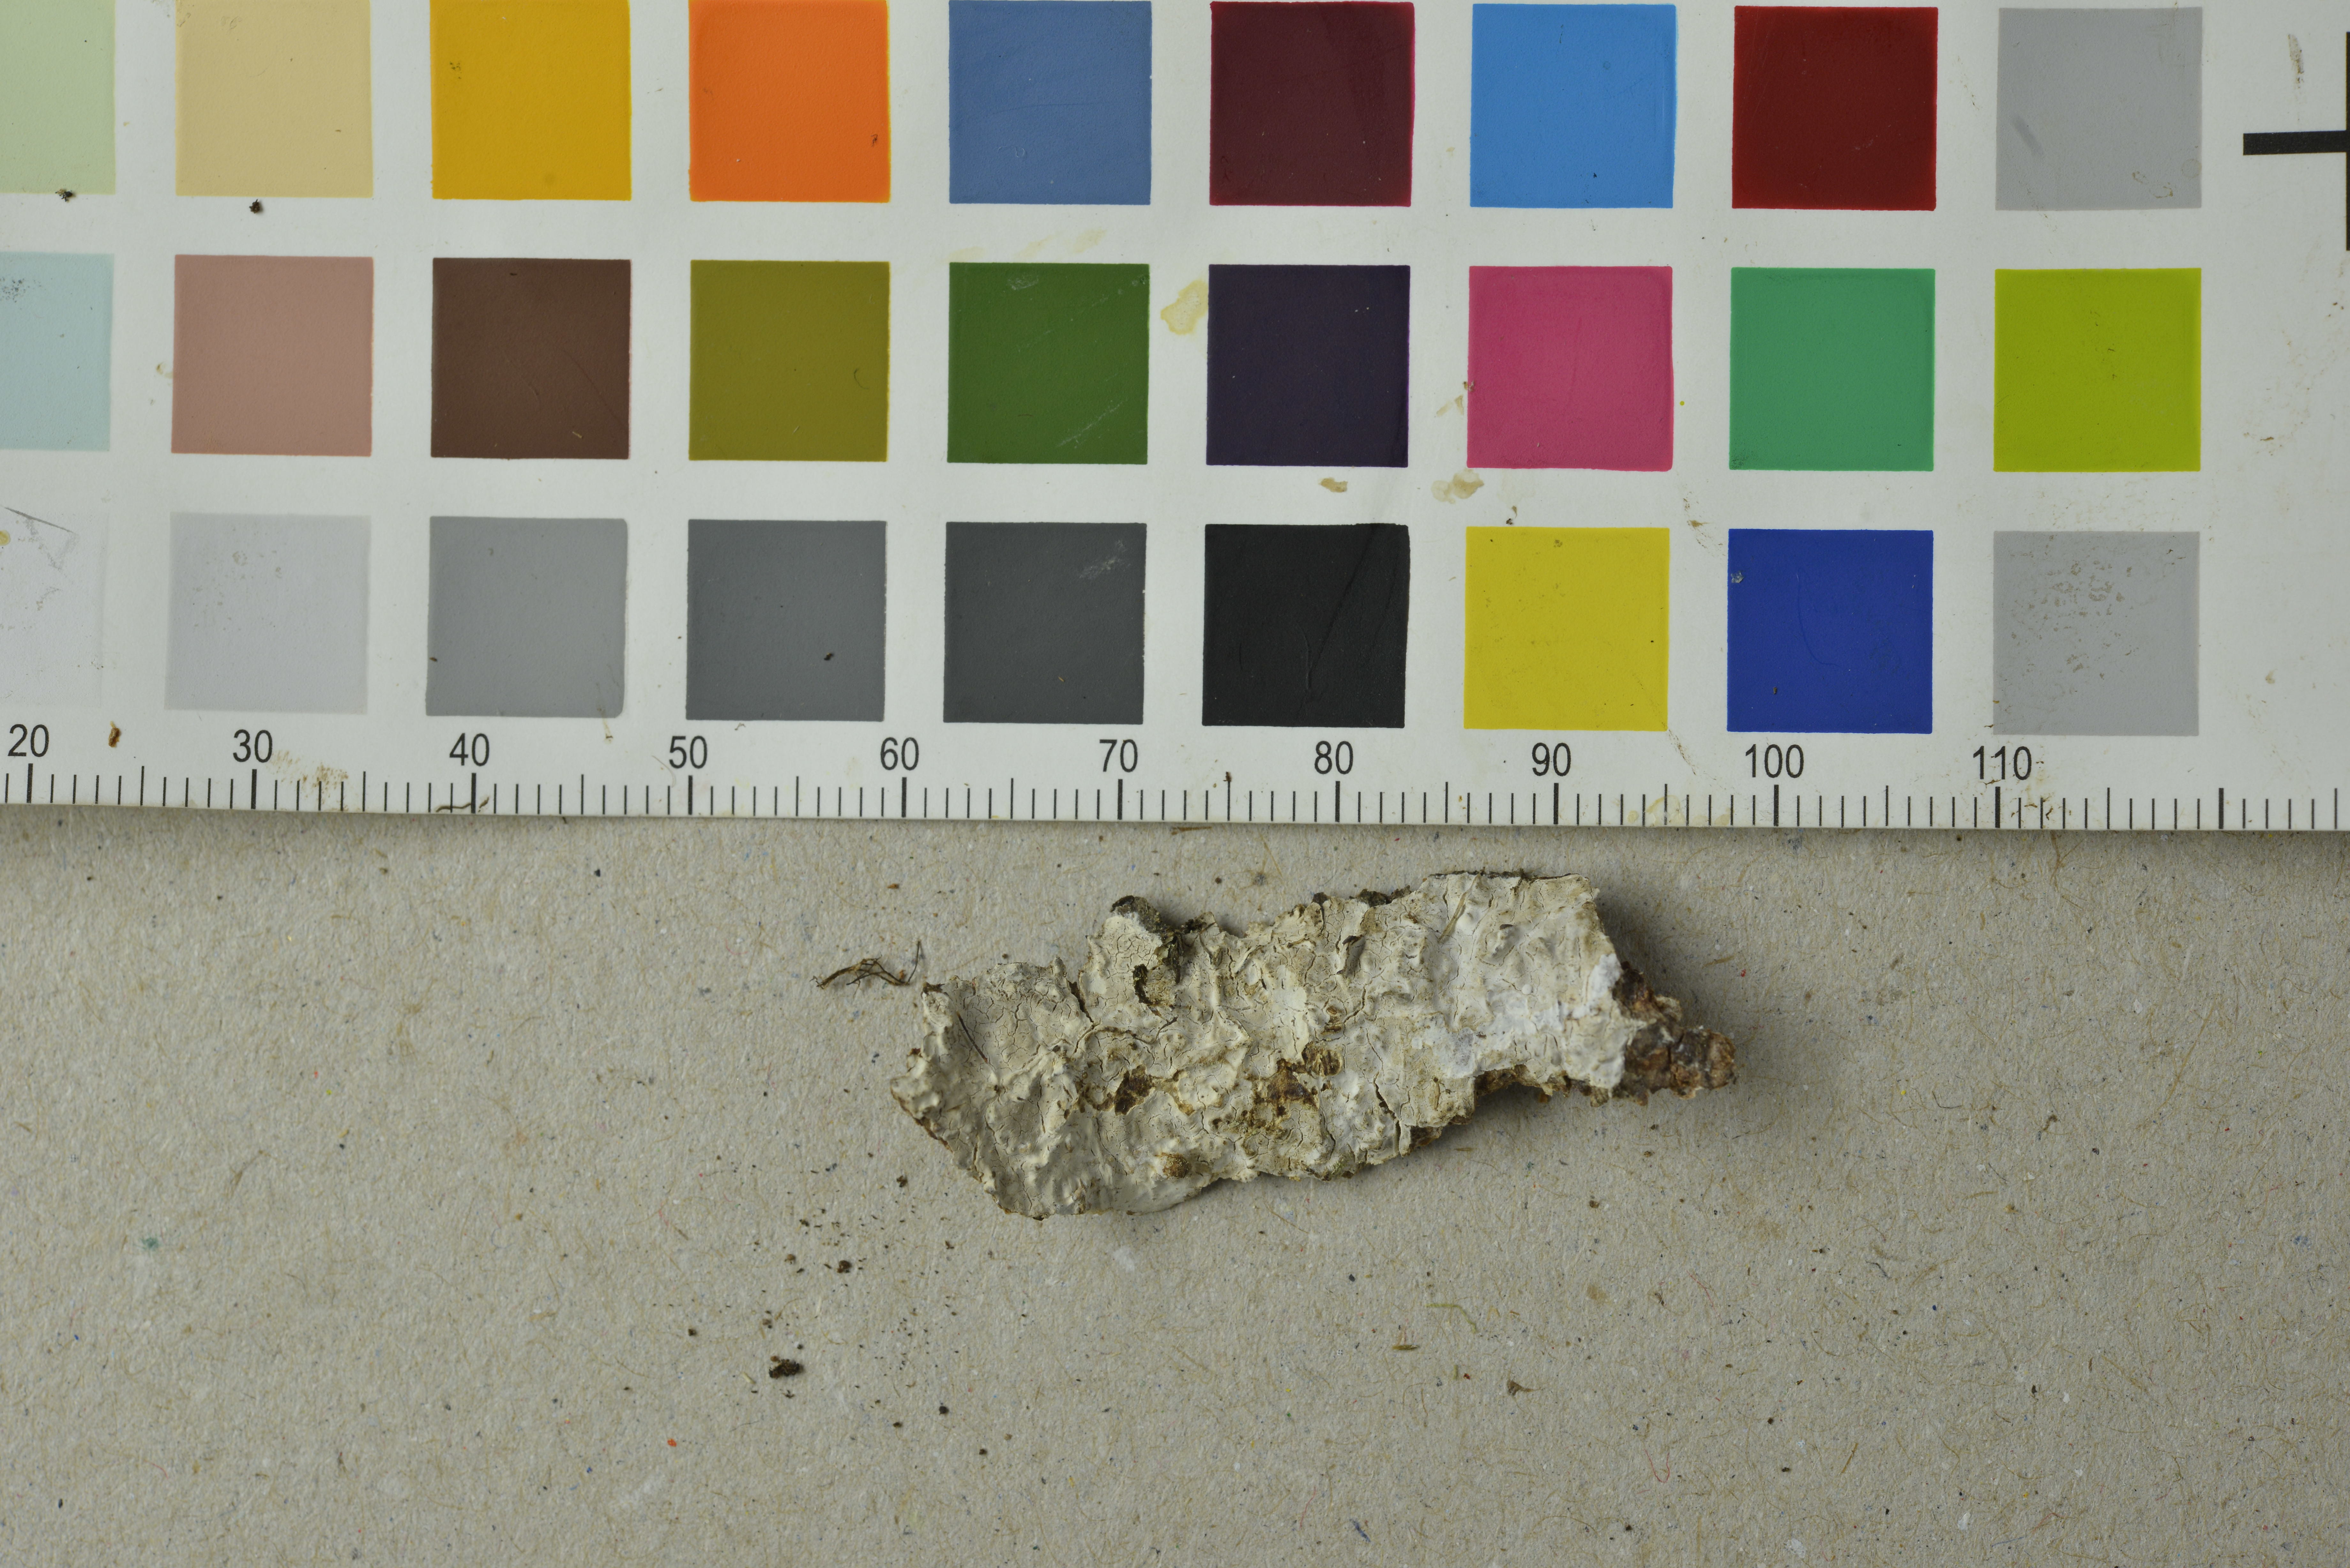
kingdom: Fungi
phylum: Basidiomycota
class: Agaricomycetes
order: Auriculariales
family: Auriculariaceae
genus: Alloexidiopsis
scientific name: Alloexidiopsis calcea
